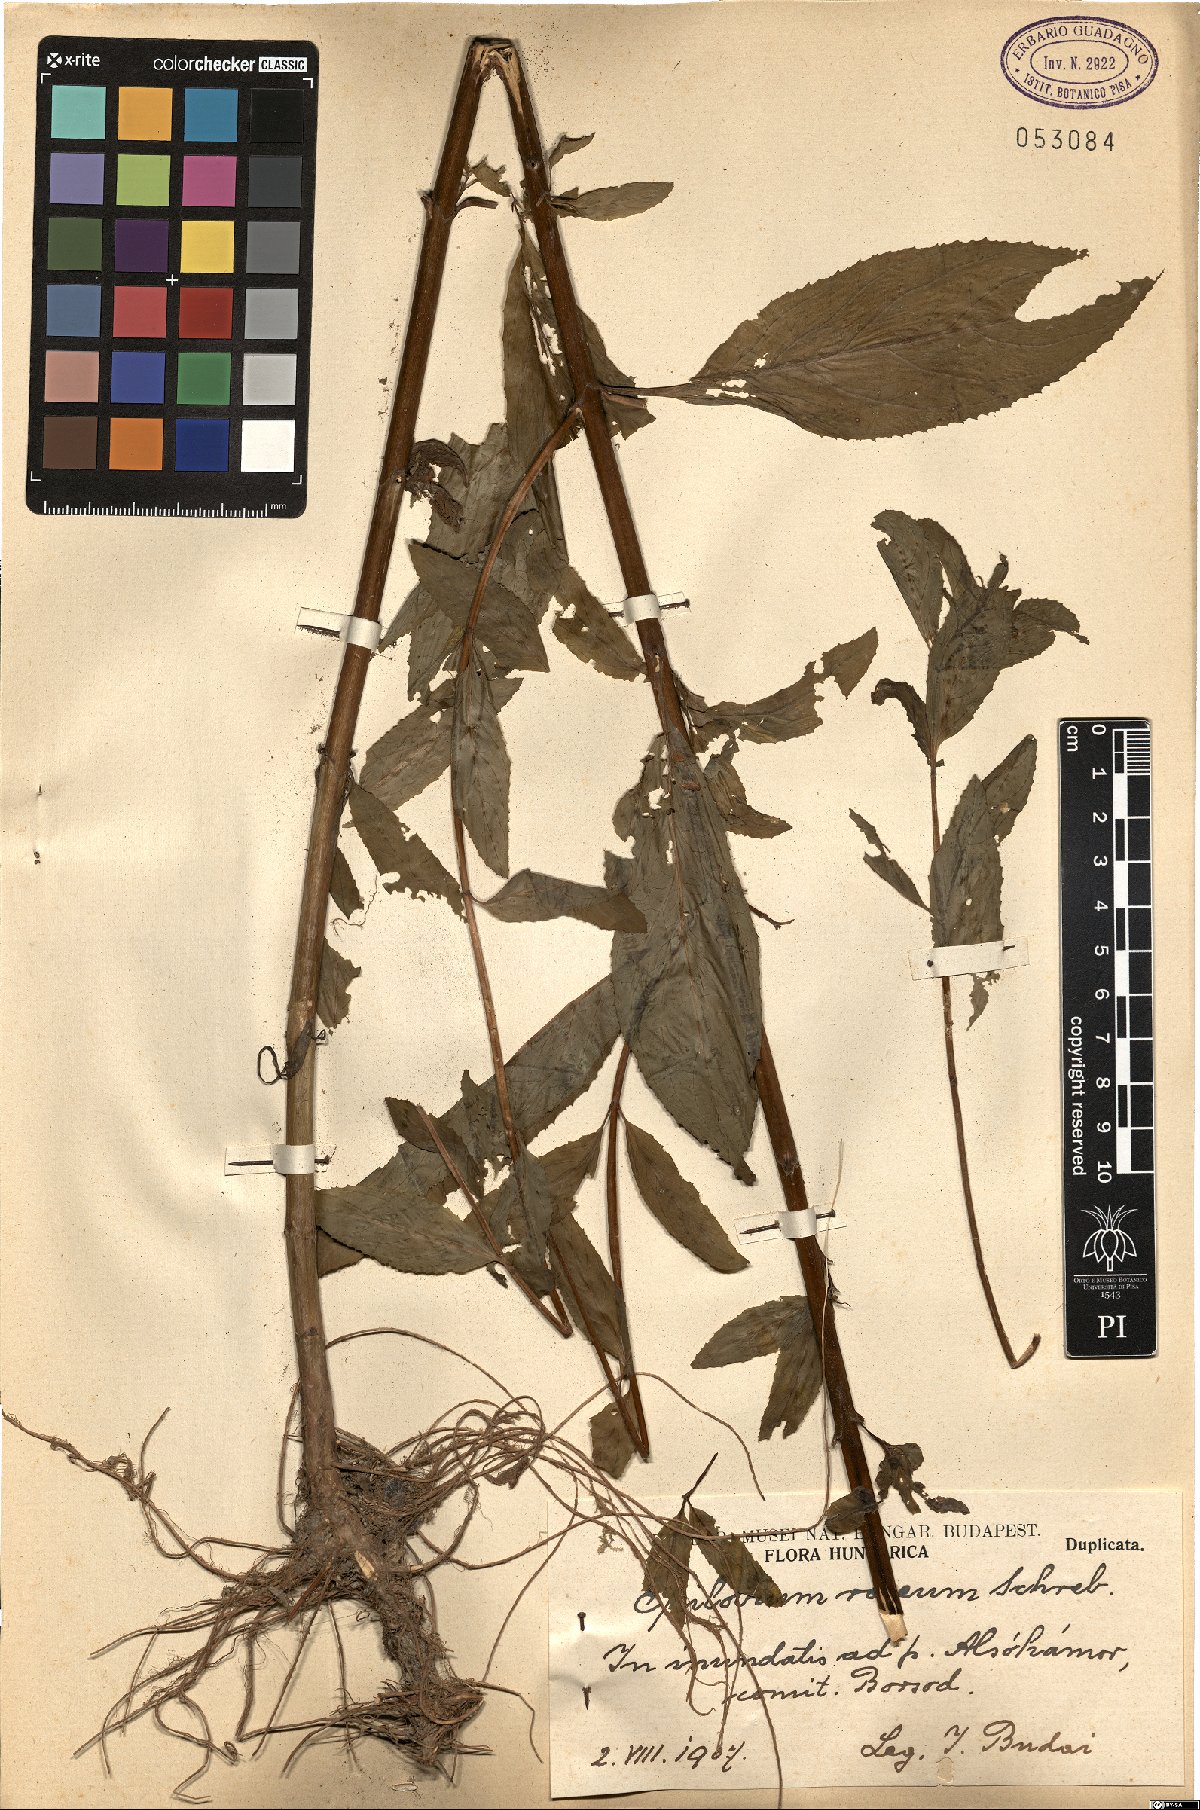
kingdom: Plantae
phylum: Tracheophyta
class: Magnoliopsida
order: Myrtales
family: Onagraceae
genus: Epilobium
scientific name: Epilobium roseum
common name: Pale willowherb
